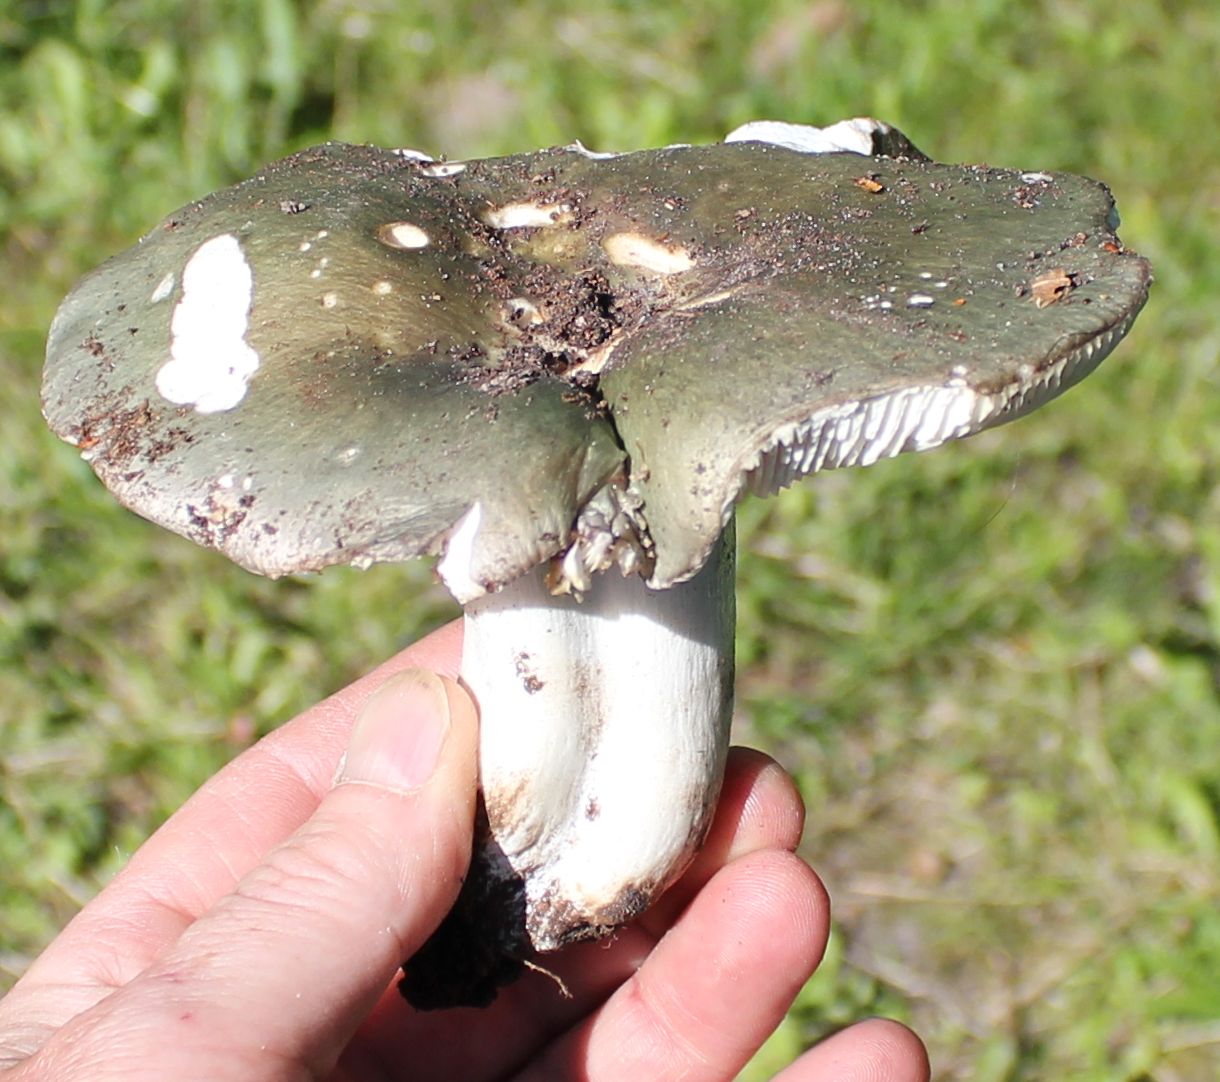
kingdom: Fungi
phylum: Basidiomycota
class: Agaricomycetes
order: Russulales
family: Russulaceae
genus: Russula
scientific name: Russula heterophylla
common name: gaffelbladet skørhat
